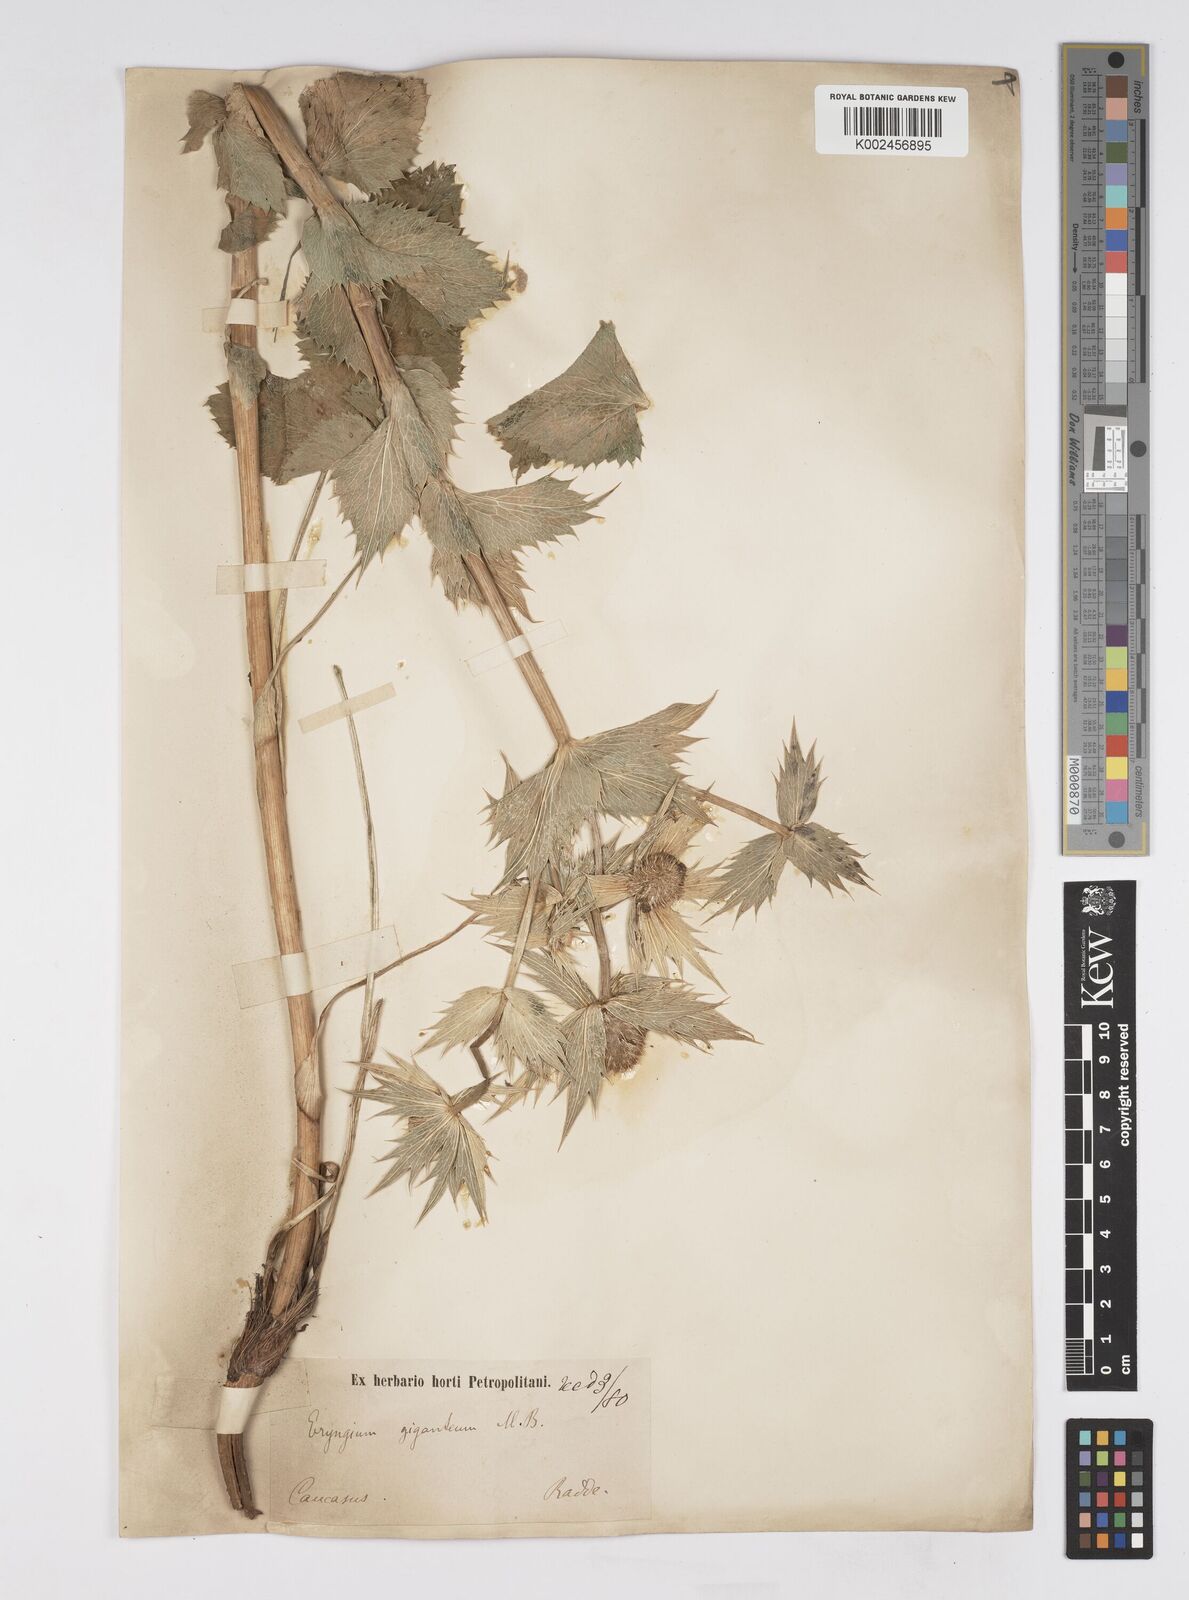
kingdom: Plantae
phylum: Tracheophyta
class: Magnoliopsida
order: Apiales
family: Apiaceae
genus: Eryngium
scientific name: Eryngium giganteum
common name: Tall eryngo
